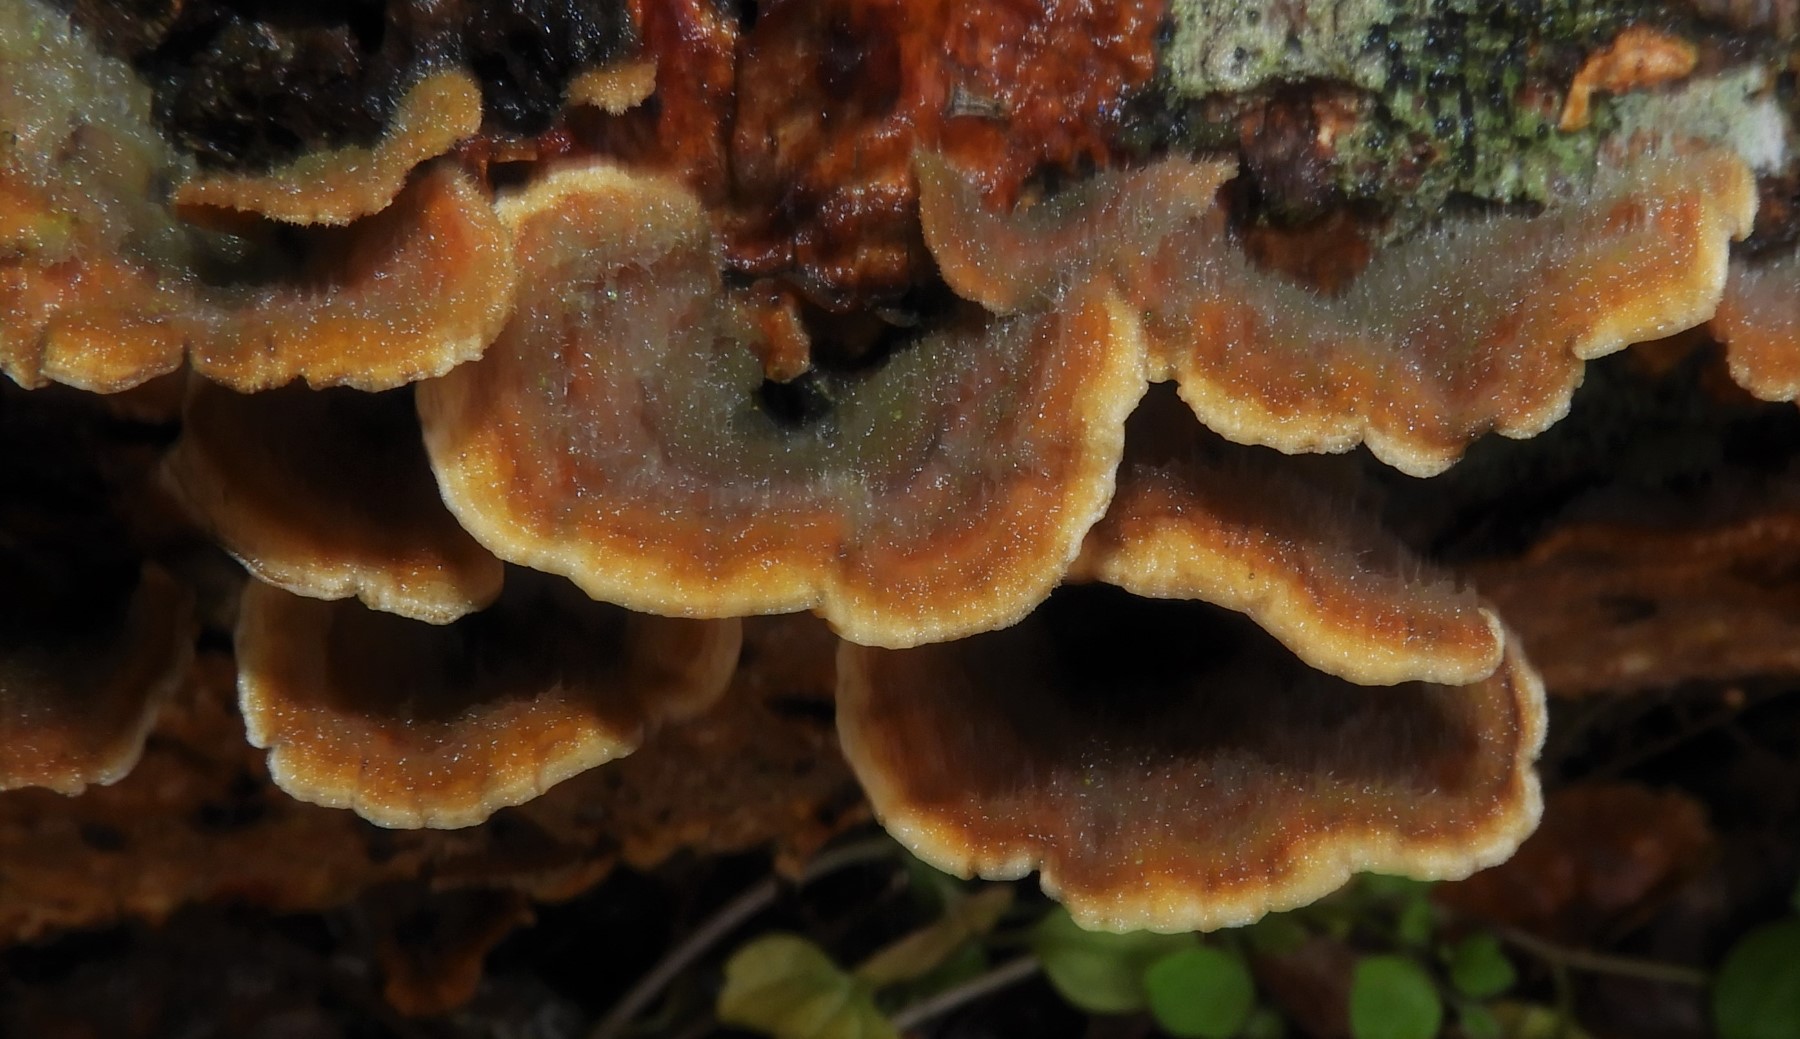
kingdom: Fungi
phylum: Basidiomycota
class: Agaricomycetes
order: Russulales
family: Stereaceae
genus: Stereum
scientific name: Stereum hirsutum
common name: håret lædersvamp
